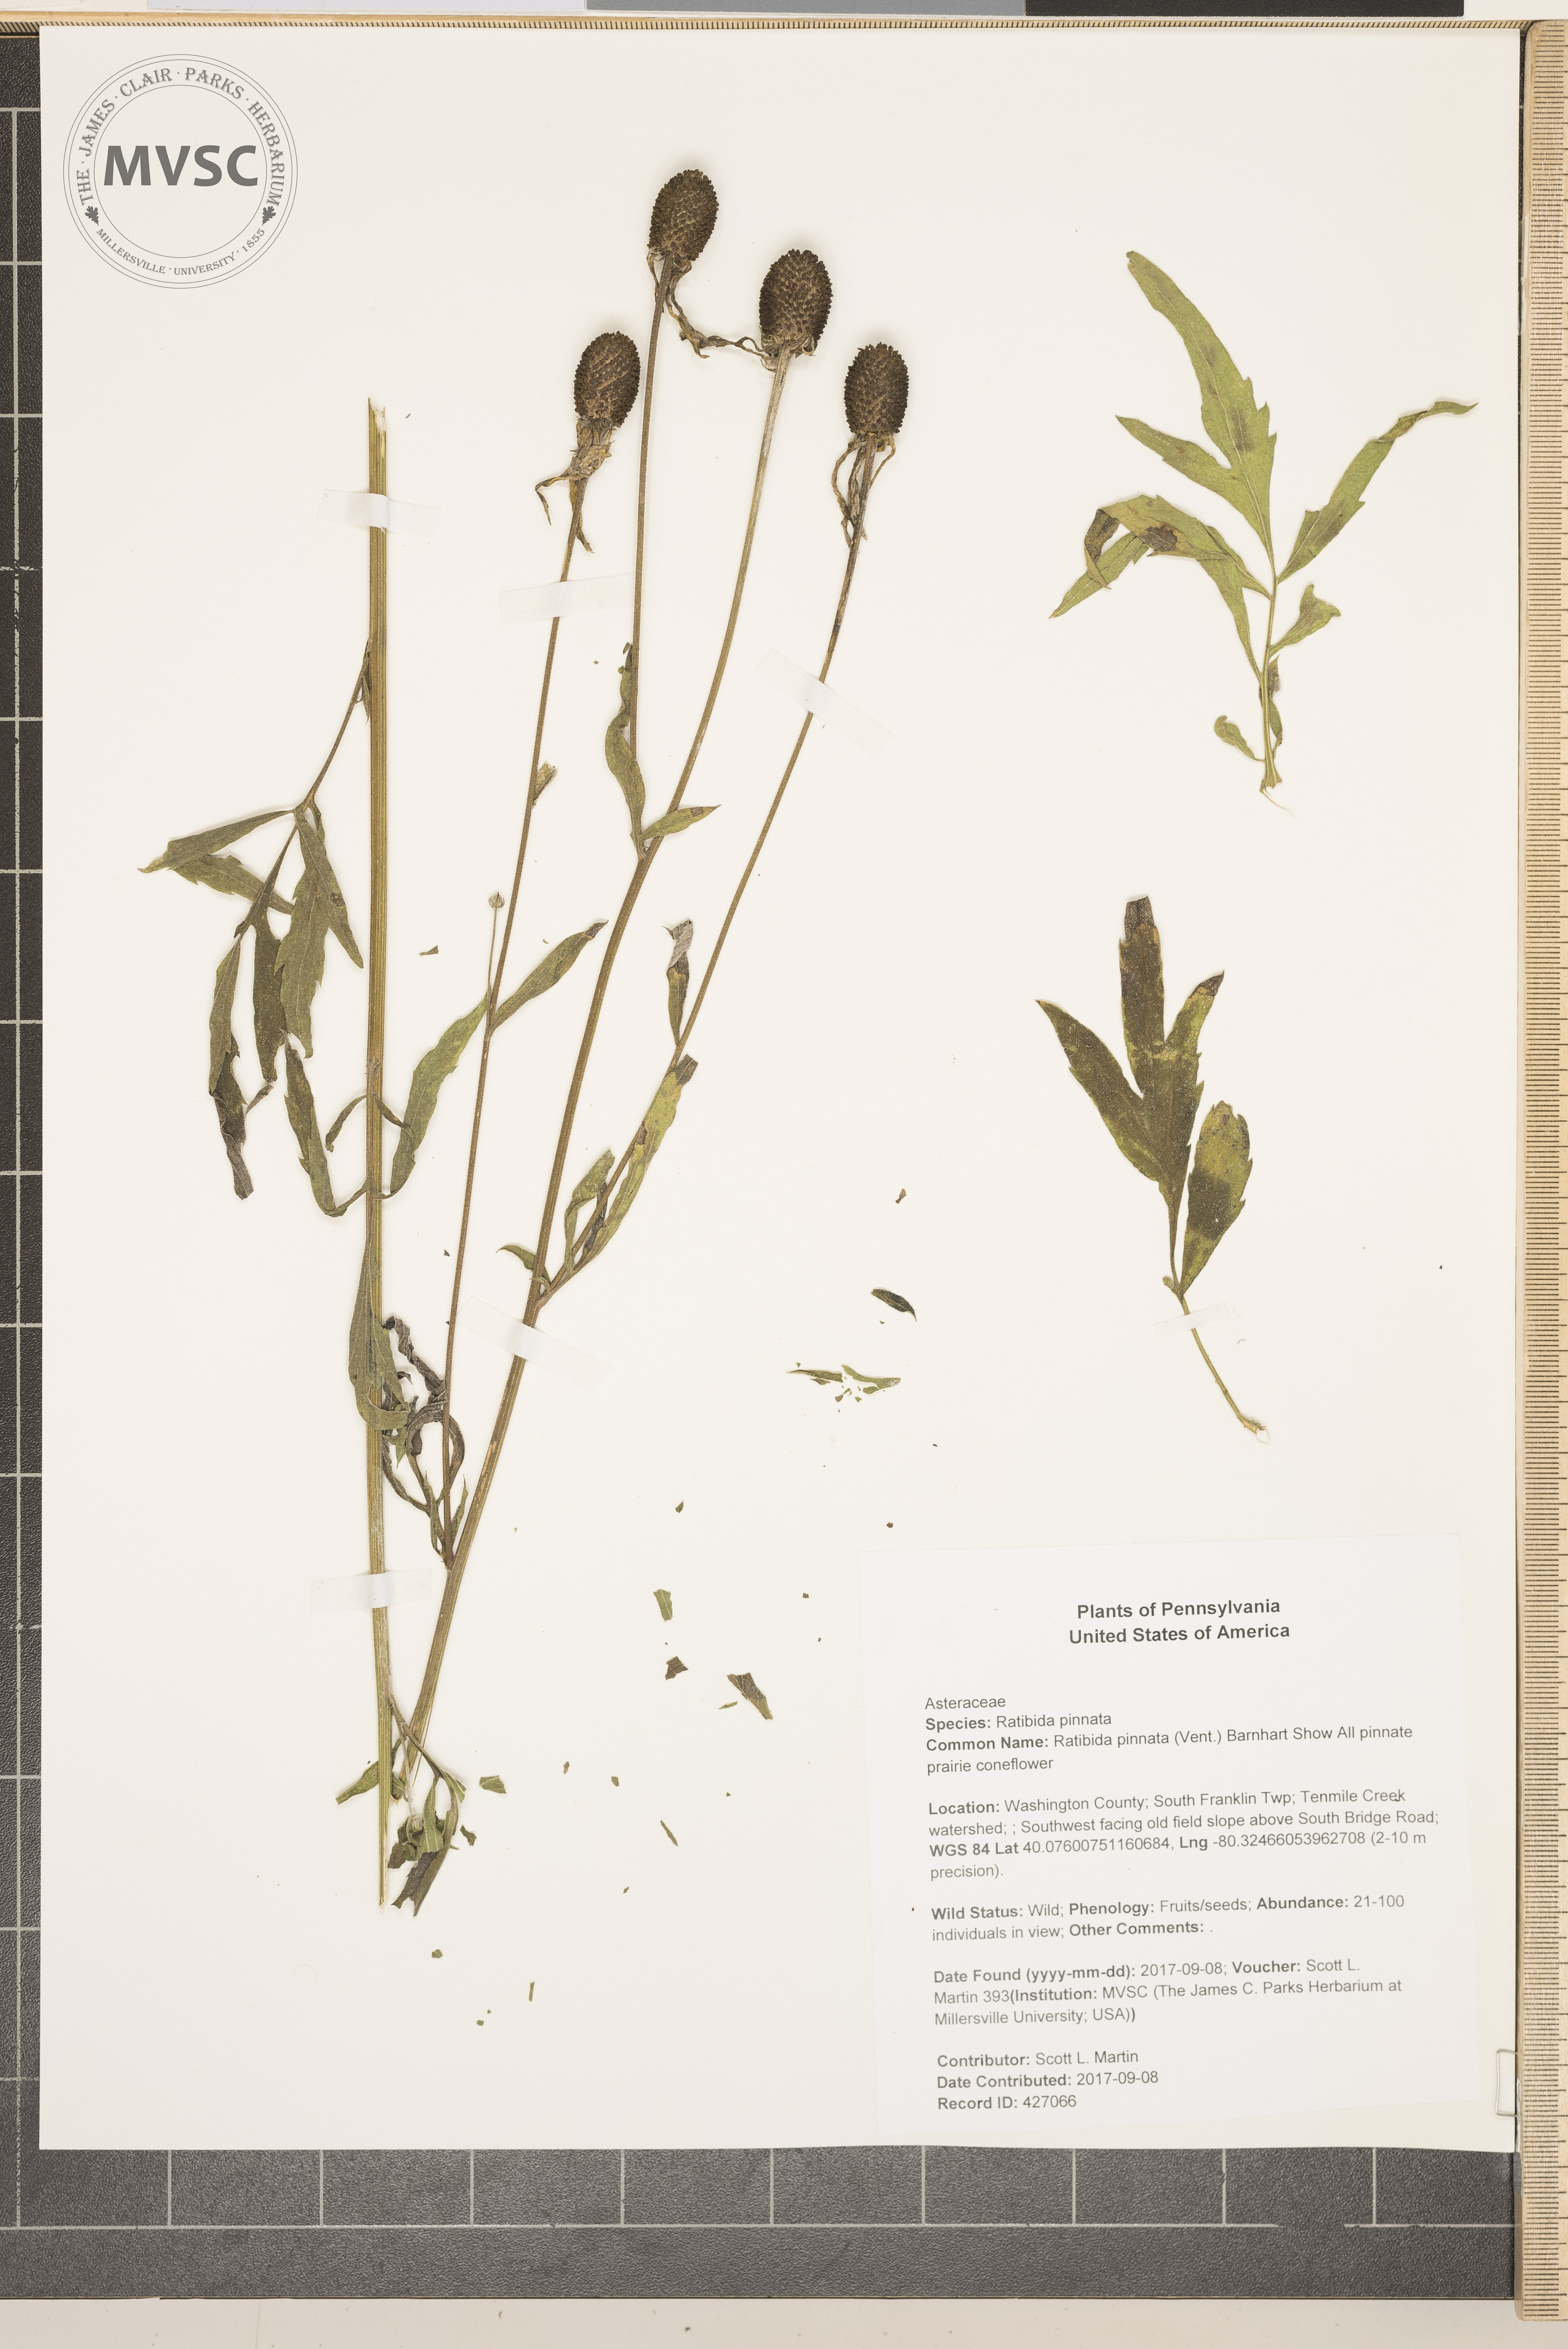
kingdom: Plantae
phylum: Tracheophyta
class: Magnoliopsida
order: Asterales
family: Asteraceae
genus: Ratibida
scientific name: Ratibida pinnata
